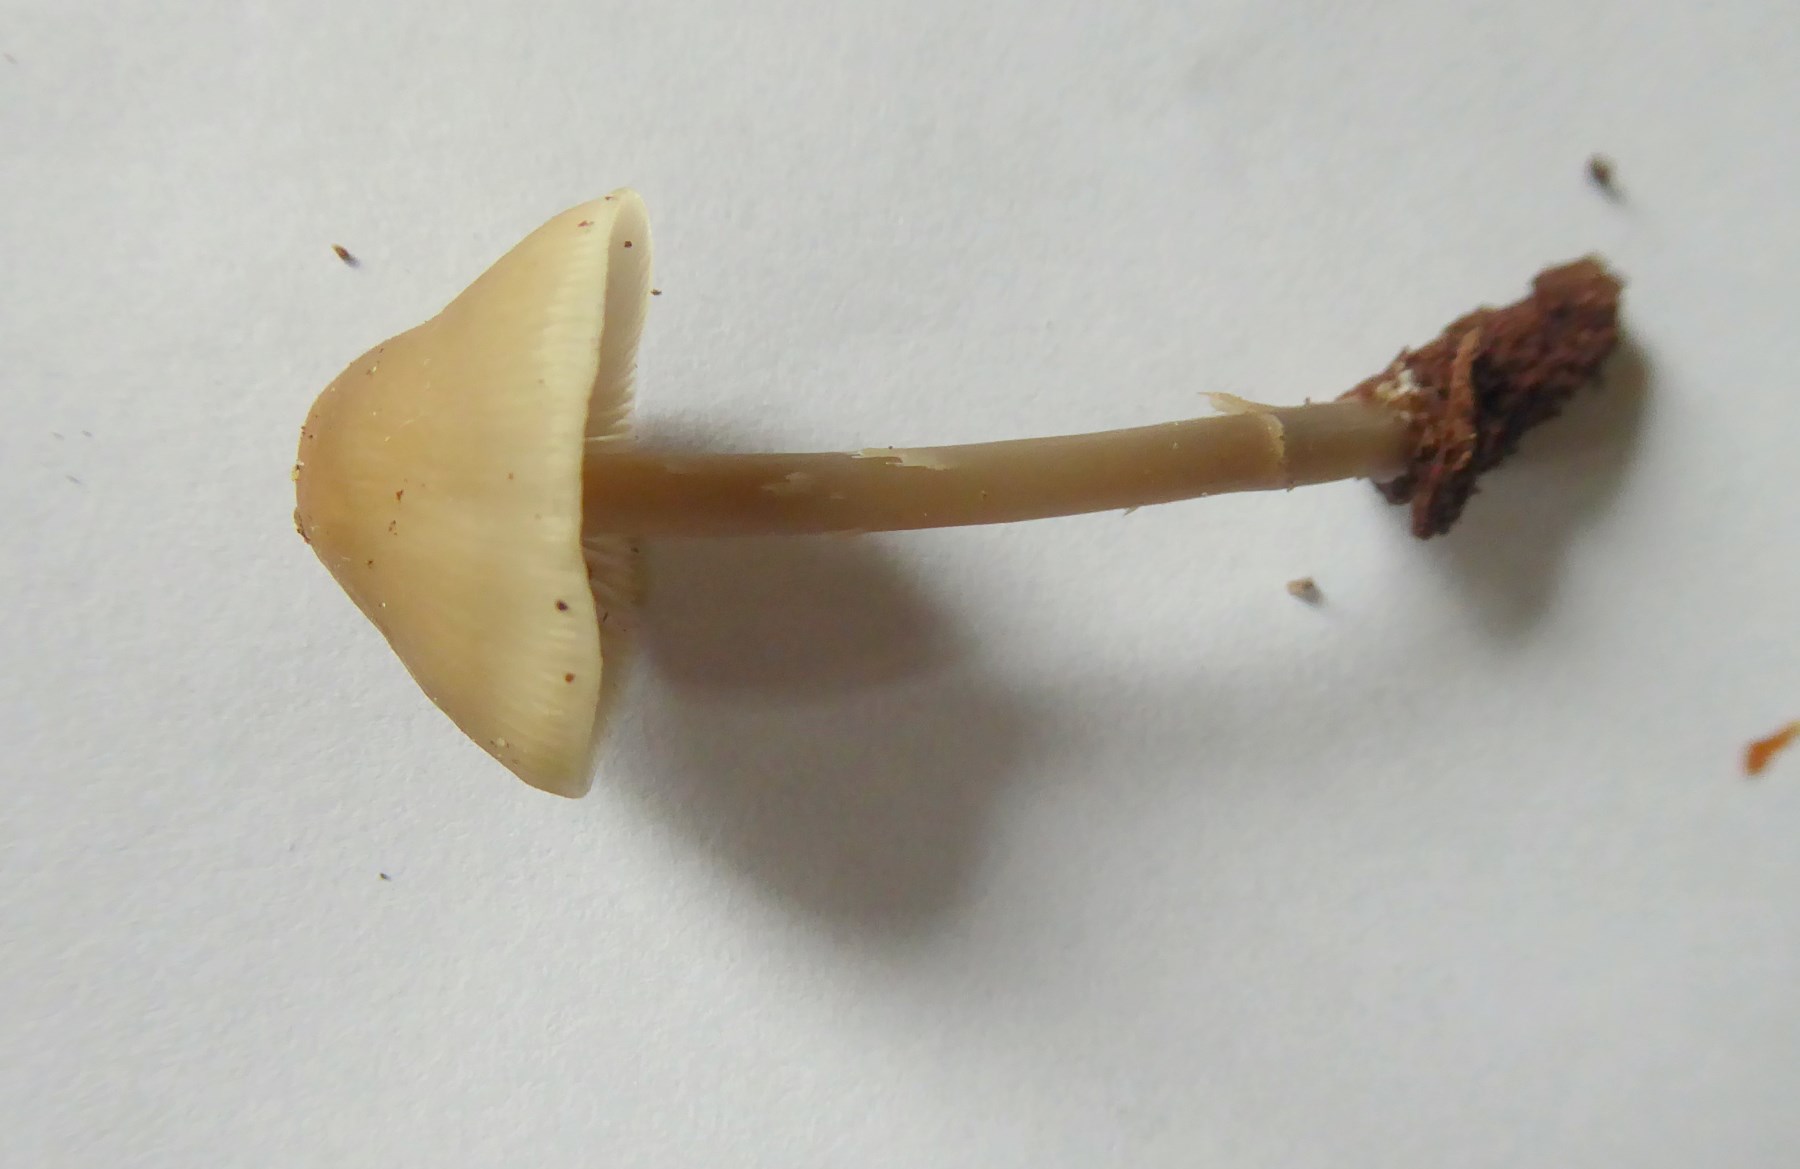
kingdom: Fungi
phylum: Basidiomycota
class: Agaricomycetes
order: Agaricales
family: Mycenaceae
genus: Mycena
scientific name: Mycena galericulata
